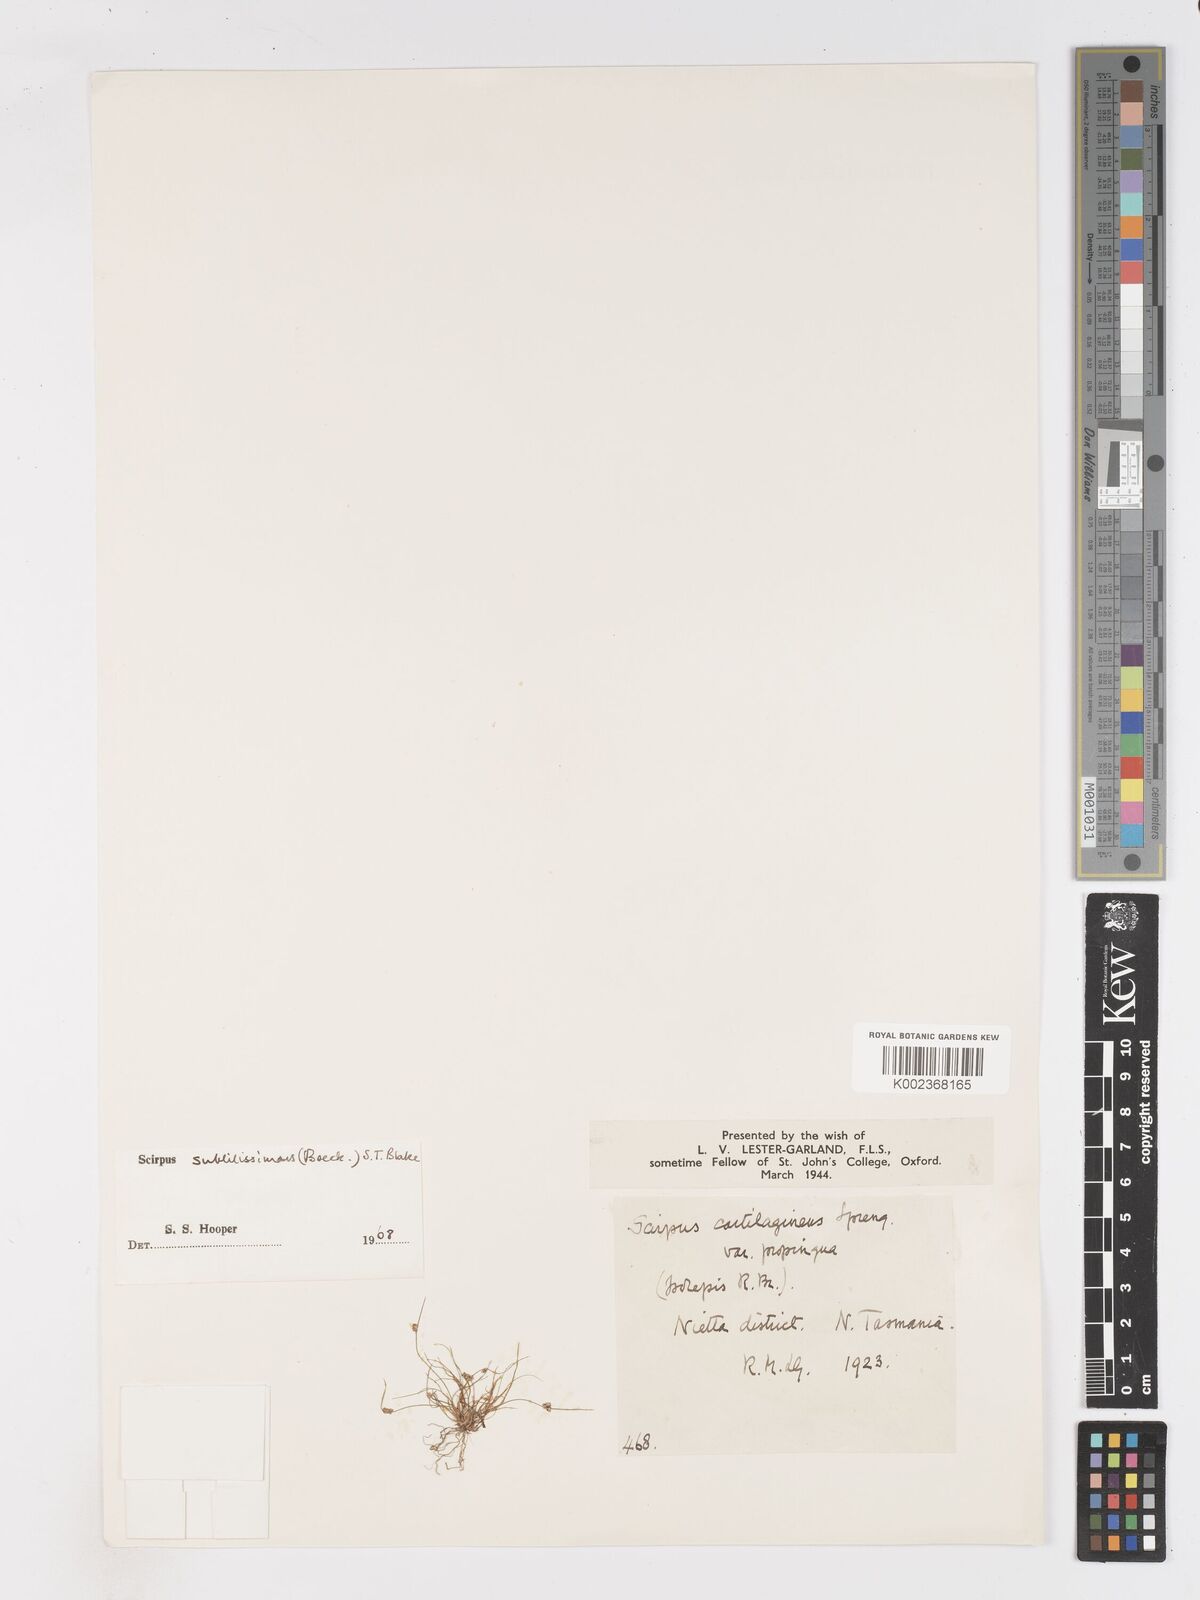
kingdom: Plantae
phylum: Tracheophyta
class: Liliopsida
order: Poales
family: Cyperaceae
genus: Isolepis
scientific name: Isolepis subtilissima
